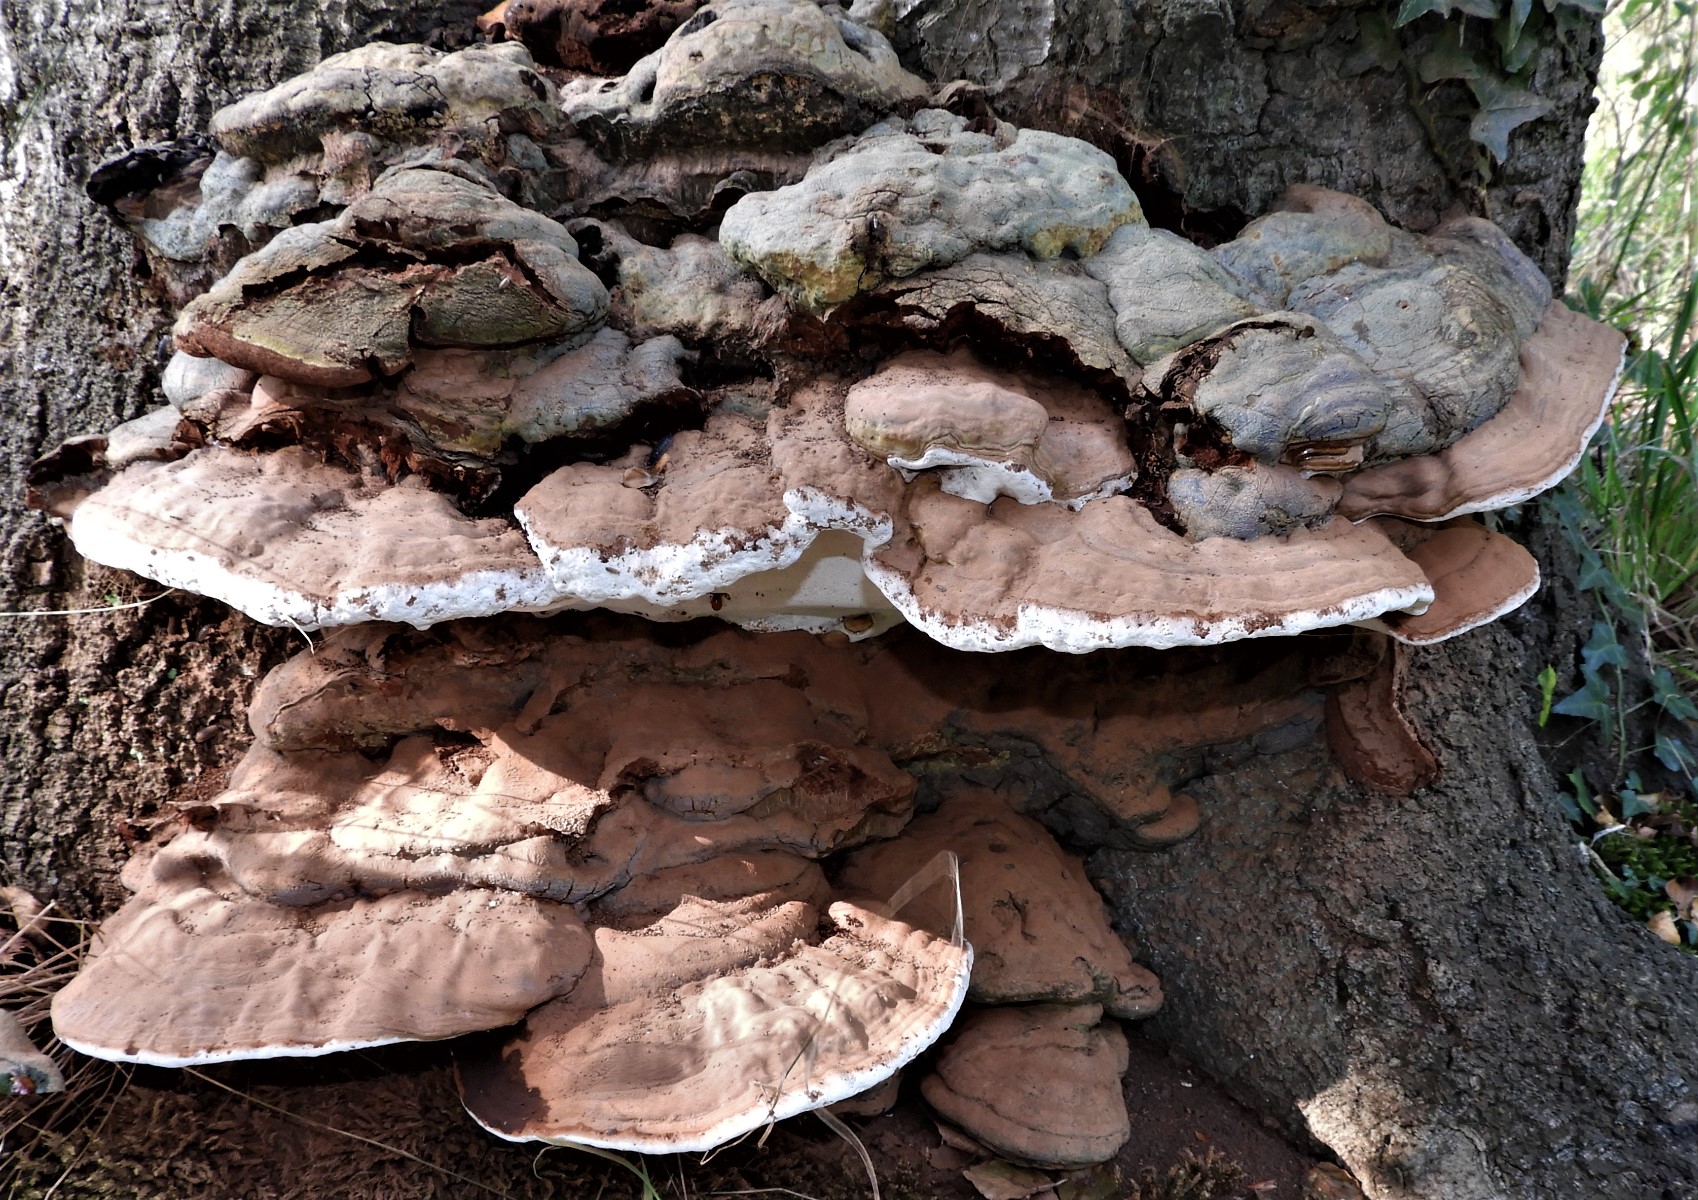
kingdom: Fungi
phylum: Basidiomycota
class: Agaricomycetes
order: Polyporales
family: Polyporaceae
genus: Ganoderma
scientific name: Ganoderma applanatum
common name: flad lakporesvamp
